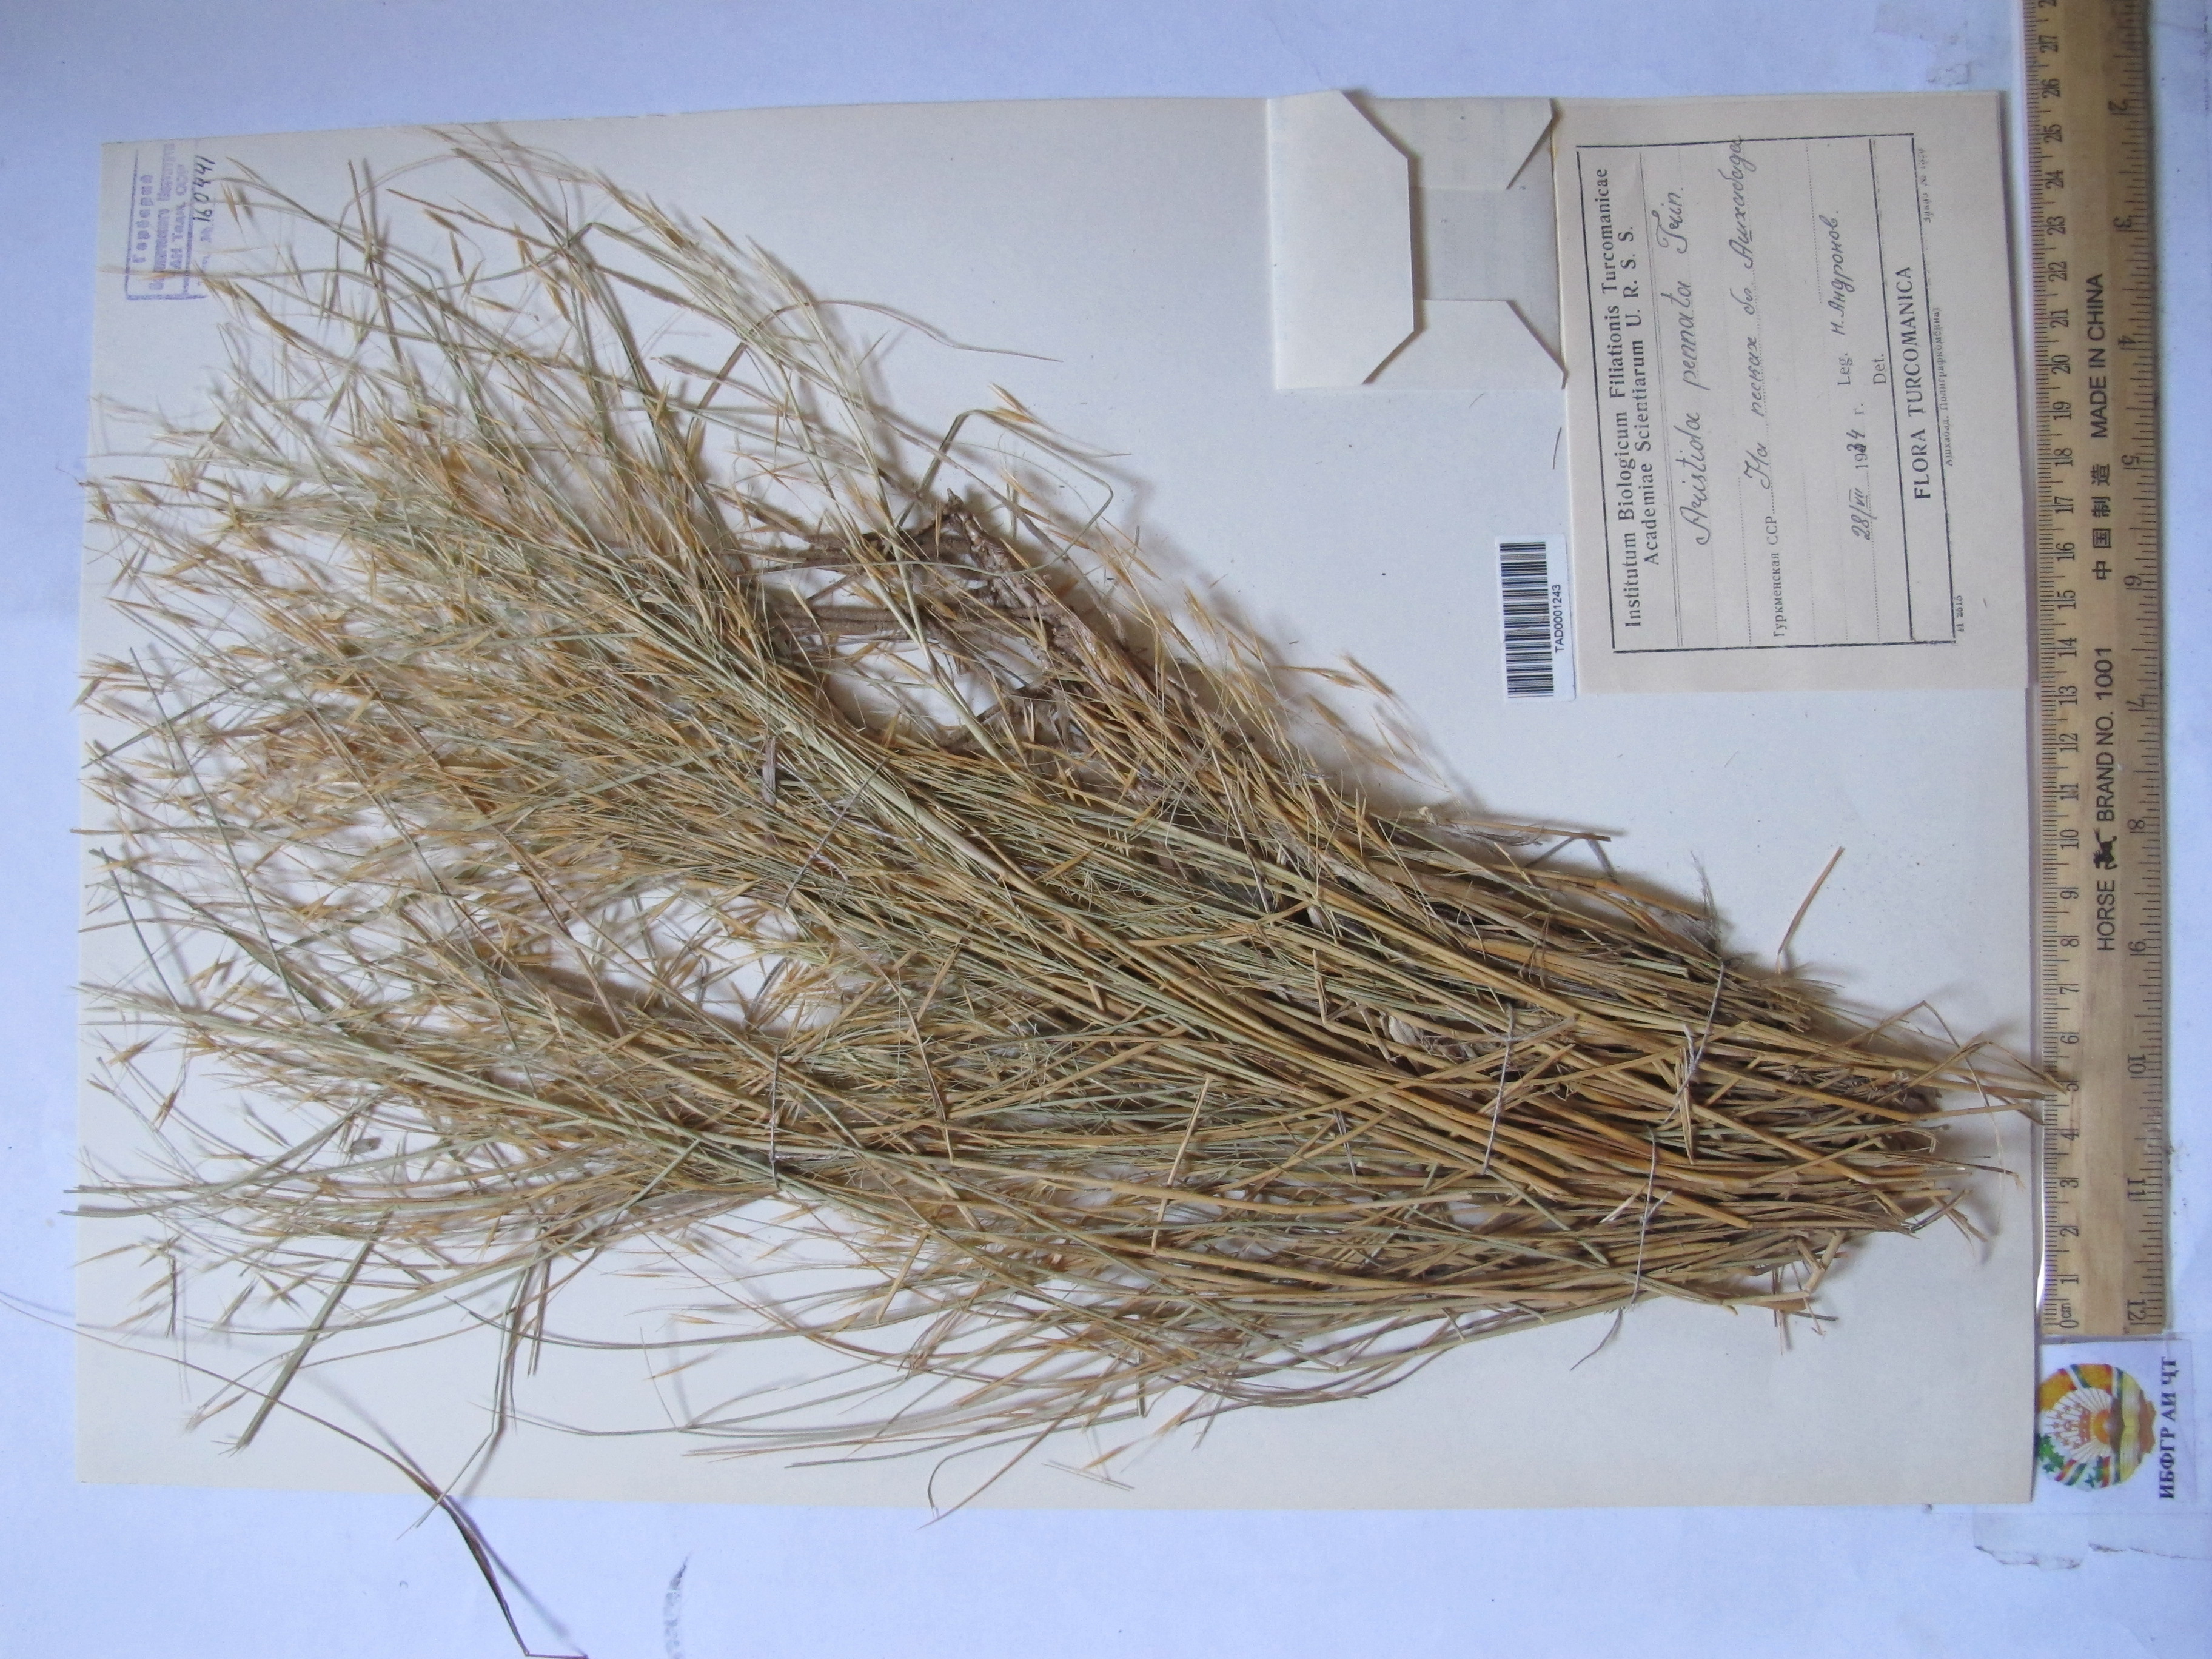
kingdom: Plantae
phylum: Tracheophyta
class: Liliopsida
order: Poales
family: Poaceae
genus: Stipagrostis
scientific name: Stipagrostis pennata
